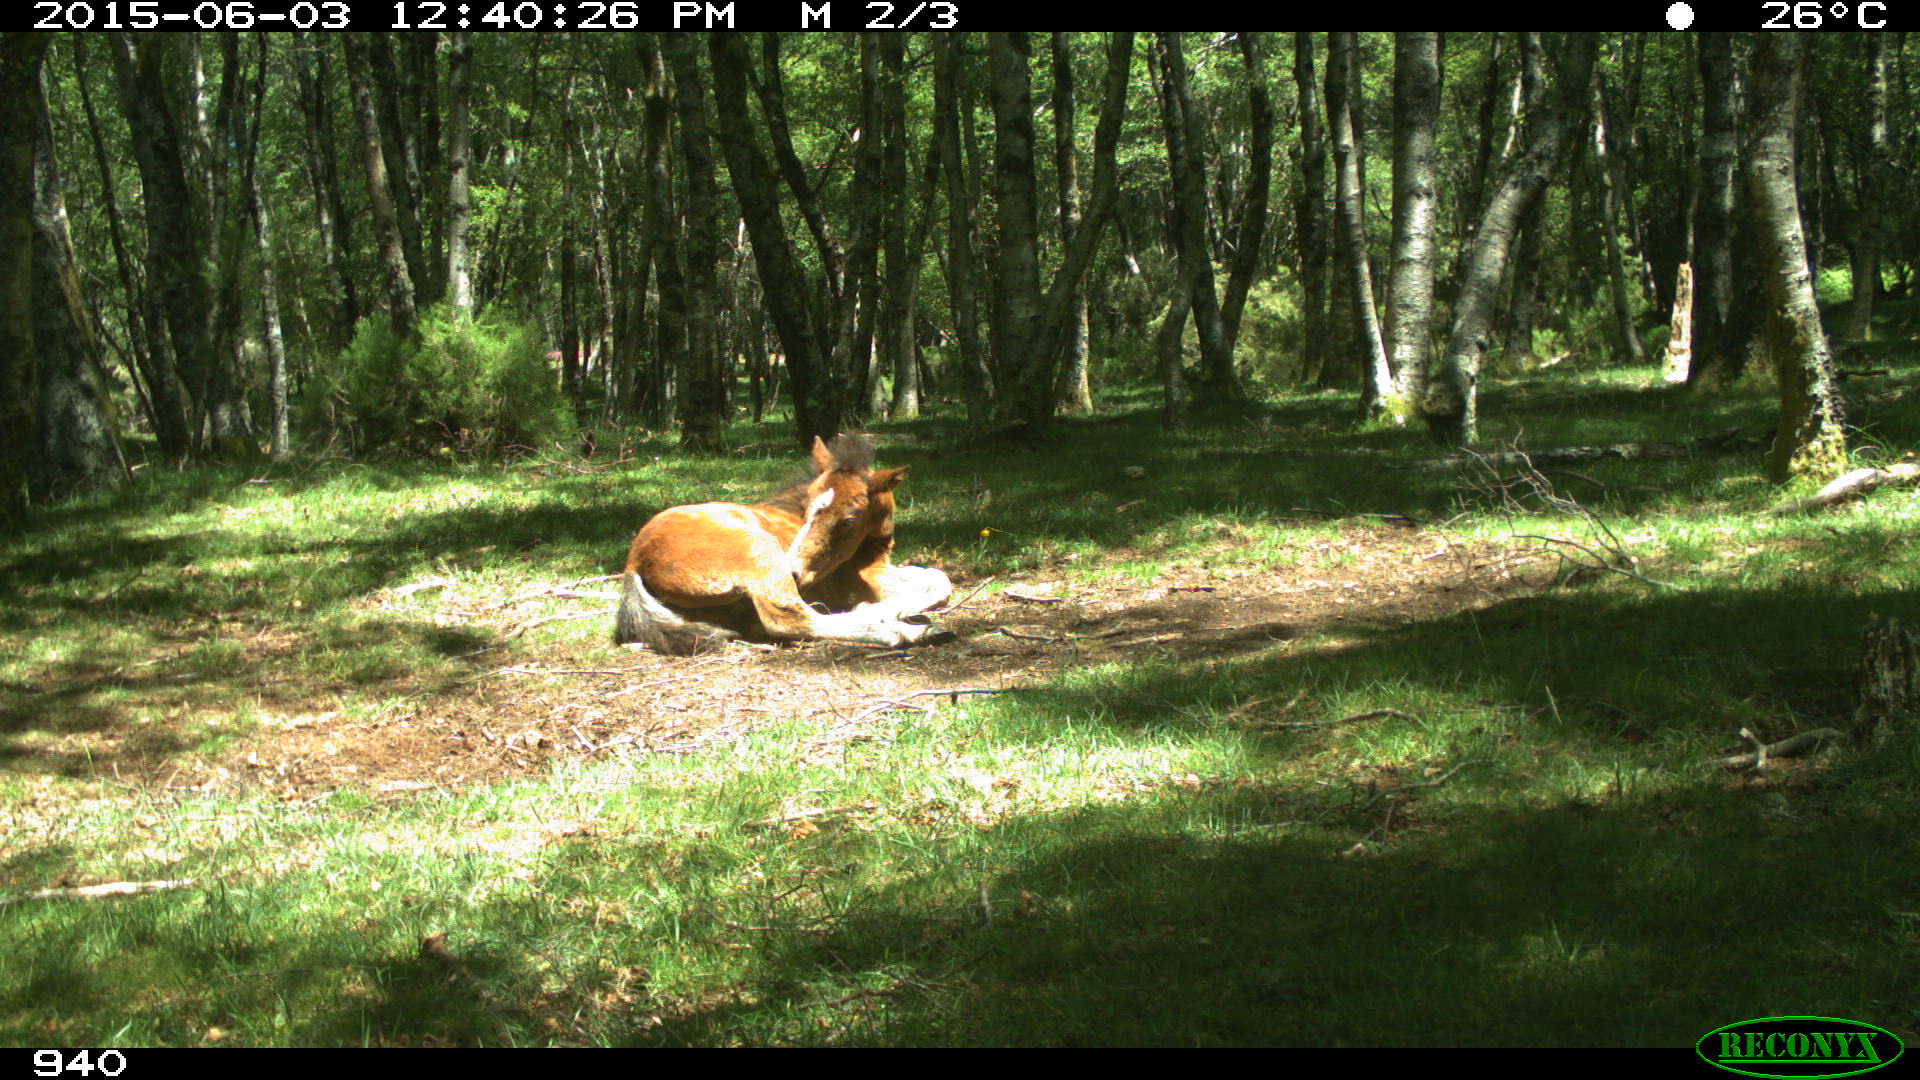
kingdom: Animalia
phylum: Chordata
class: Mammalia
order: Perissodactyla
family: Equidae
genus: Equus
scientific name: Equus caballus
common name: Horse
